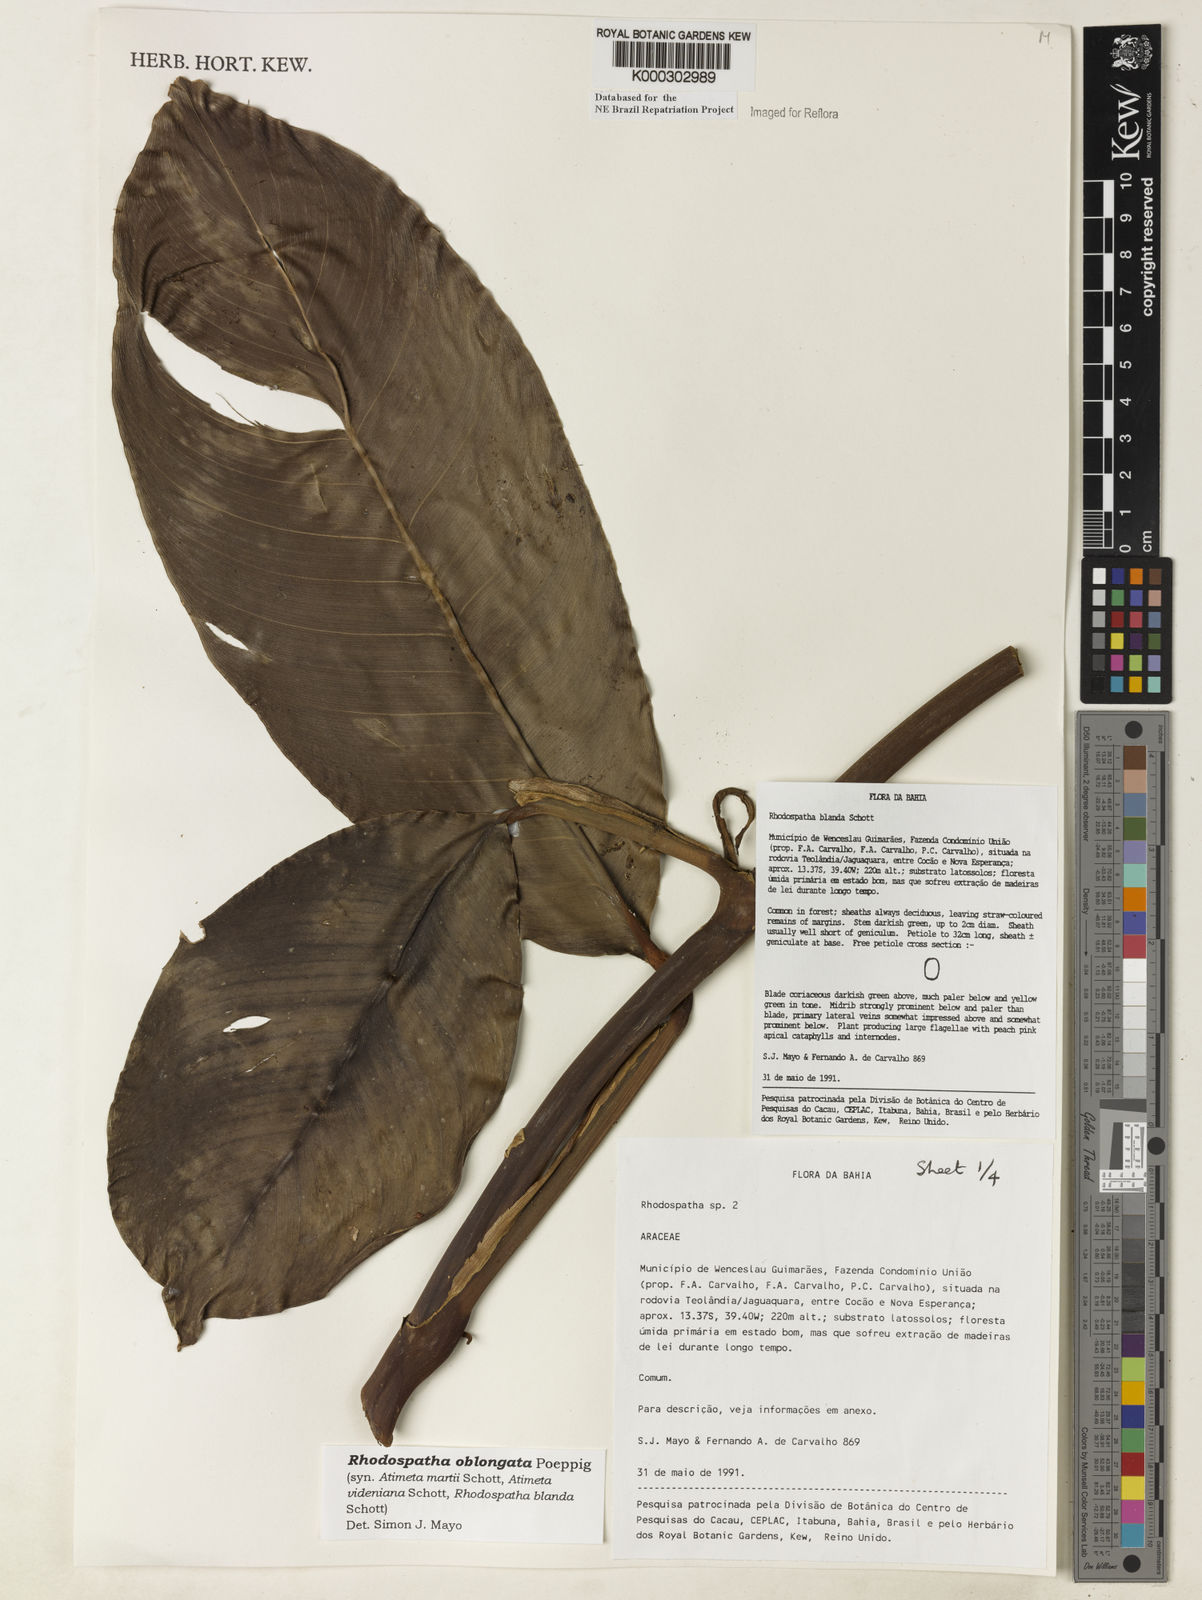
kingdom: Plantae
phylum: Tracheophyta
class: Liliopsida
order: Alismatales
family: Araceae
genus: Rhodospatha
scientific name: Rhodospatha oblongata
